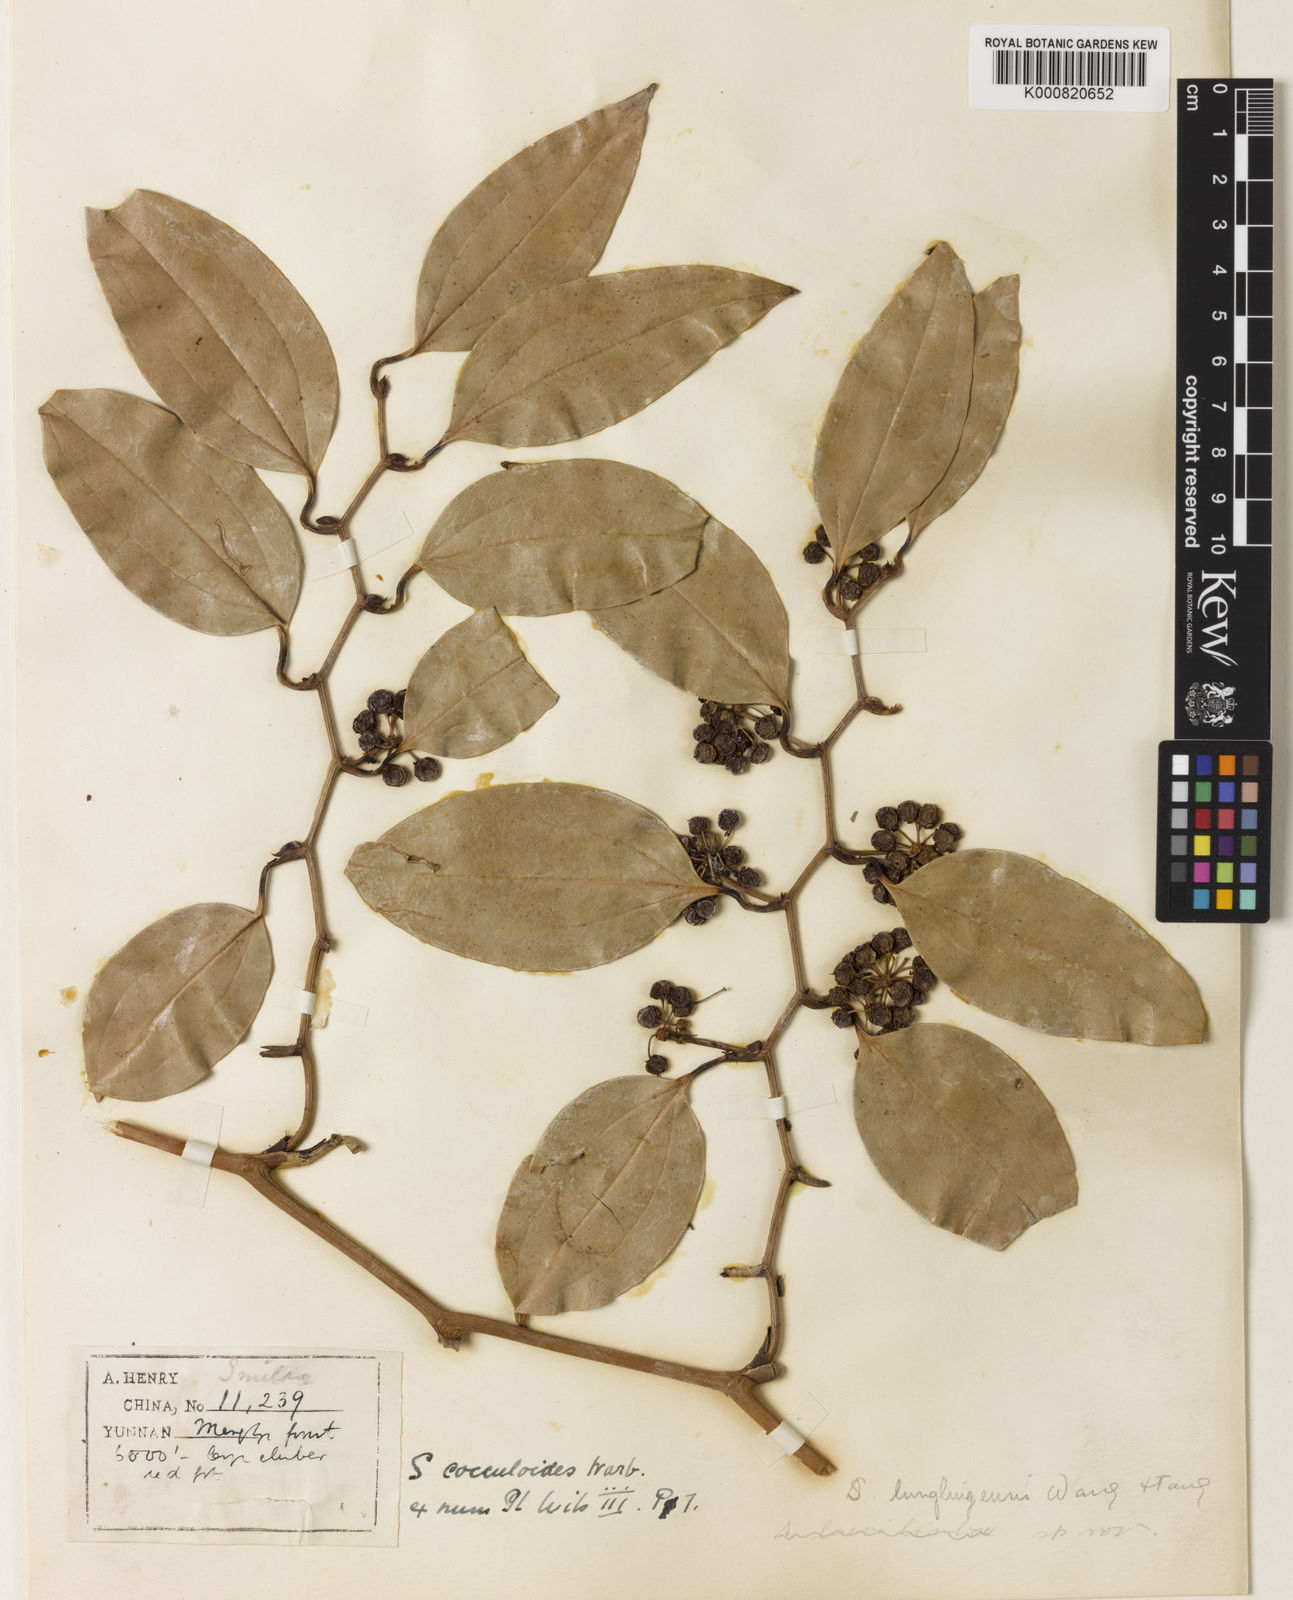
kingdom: Plantae
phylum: Tracheophyta
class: Liliopsida
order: Liliales
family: Smilacaceae
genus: Smilax
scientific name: Smilax lunglingensis
